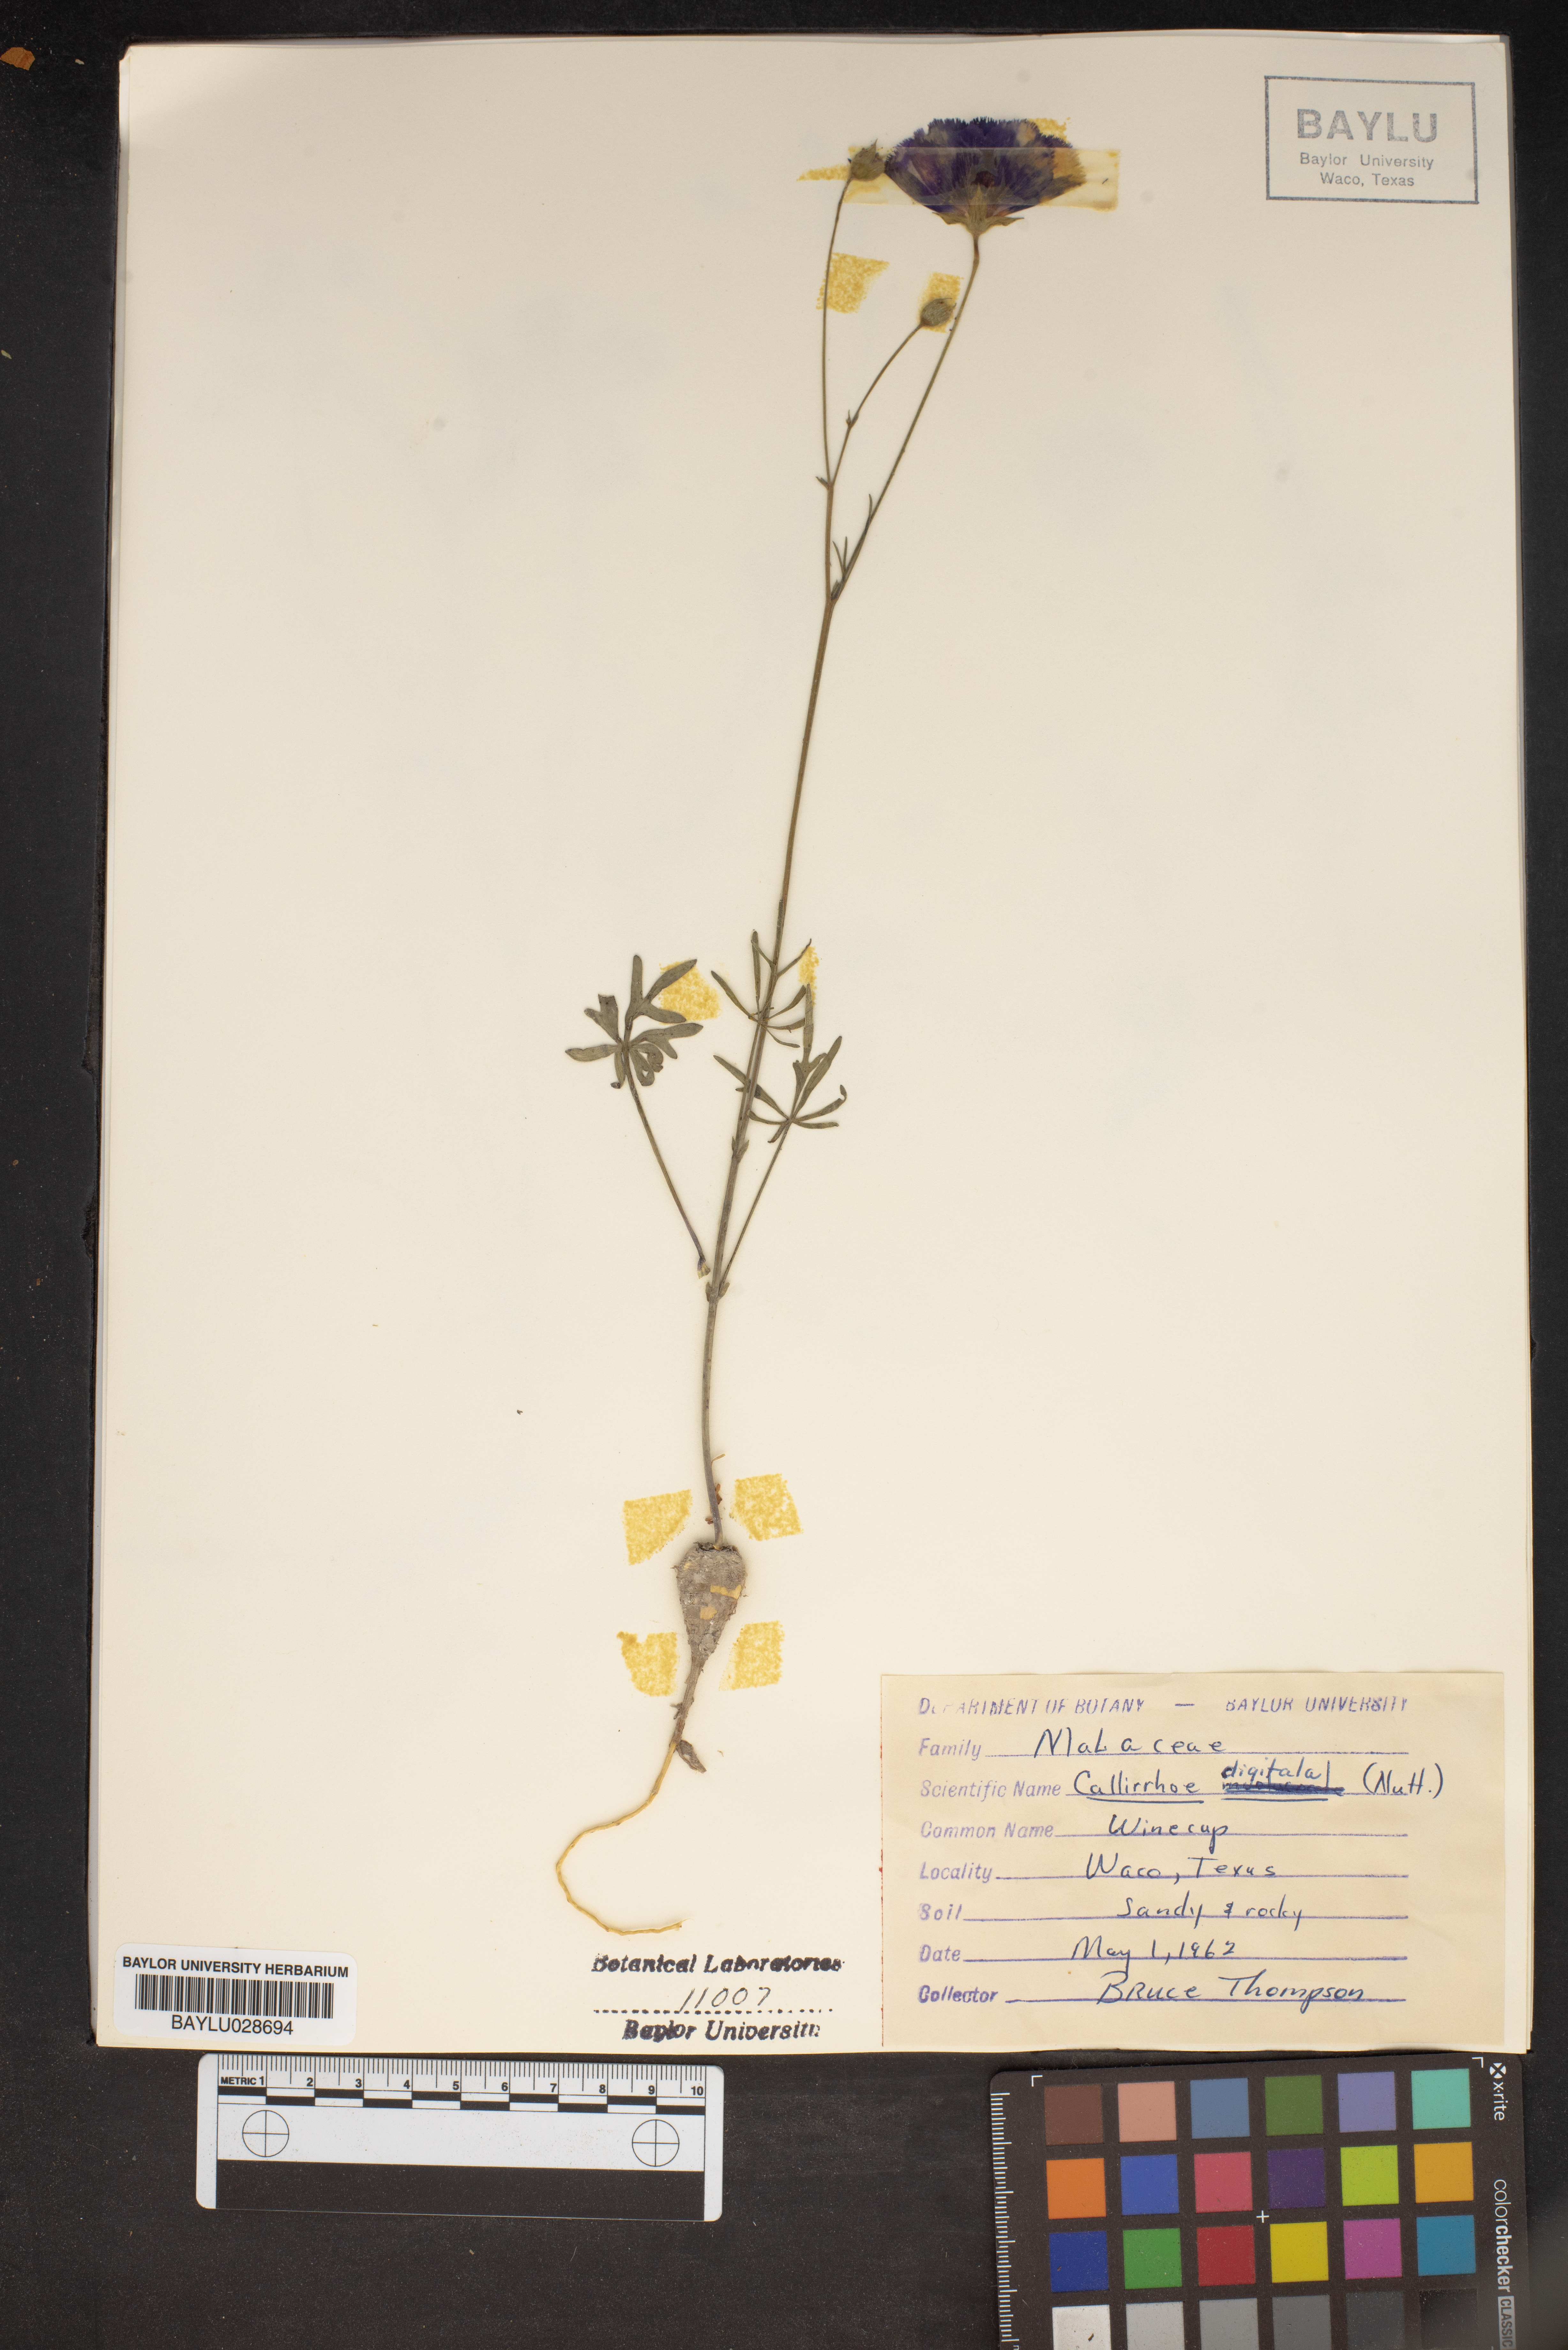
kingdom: Plantae
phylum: Tracheophyta
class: Magnoliopsida
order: Malvales
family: Malvaceae
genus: Callirhoe
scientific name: Callirhoe digitata
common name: Finger poppy-mallow
